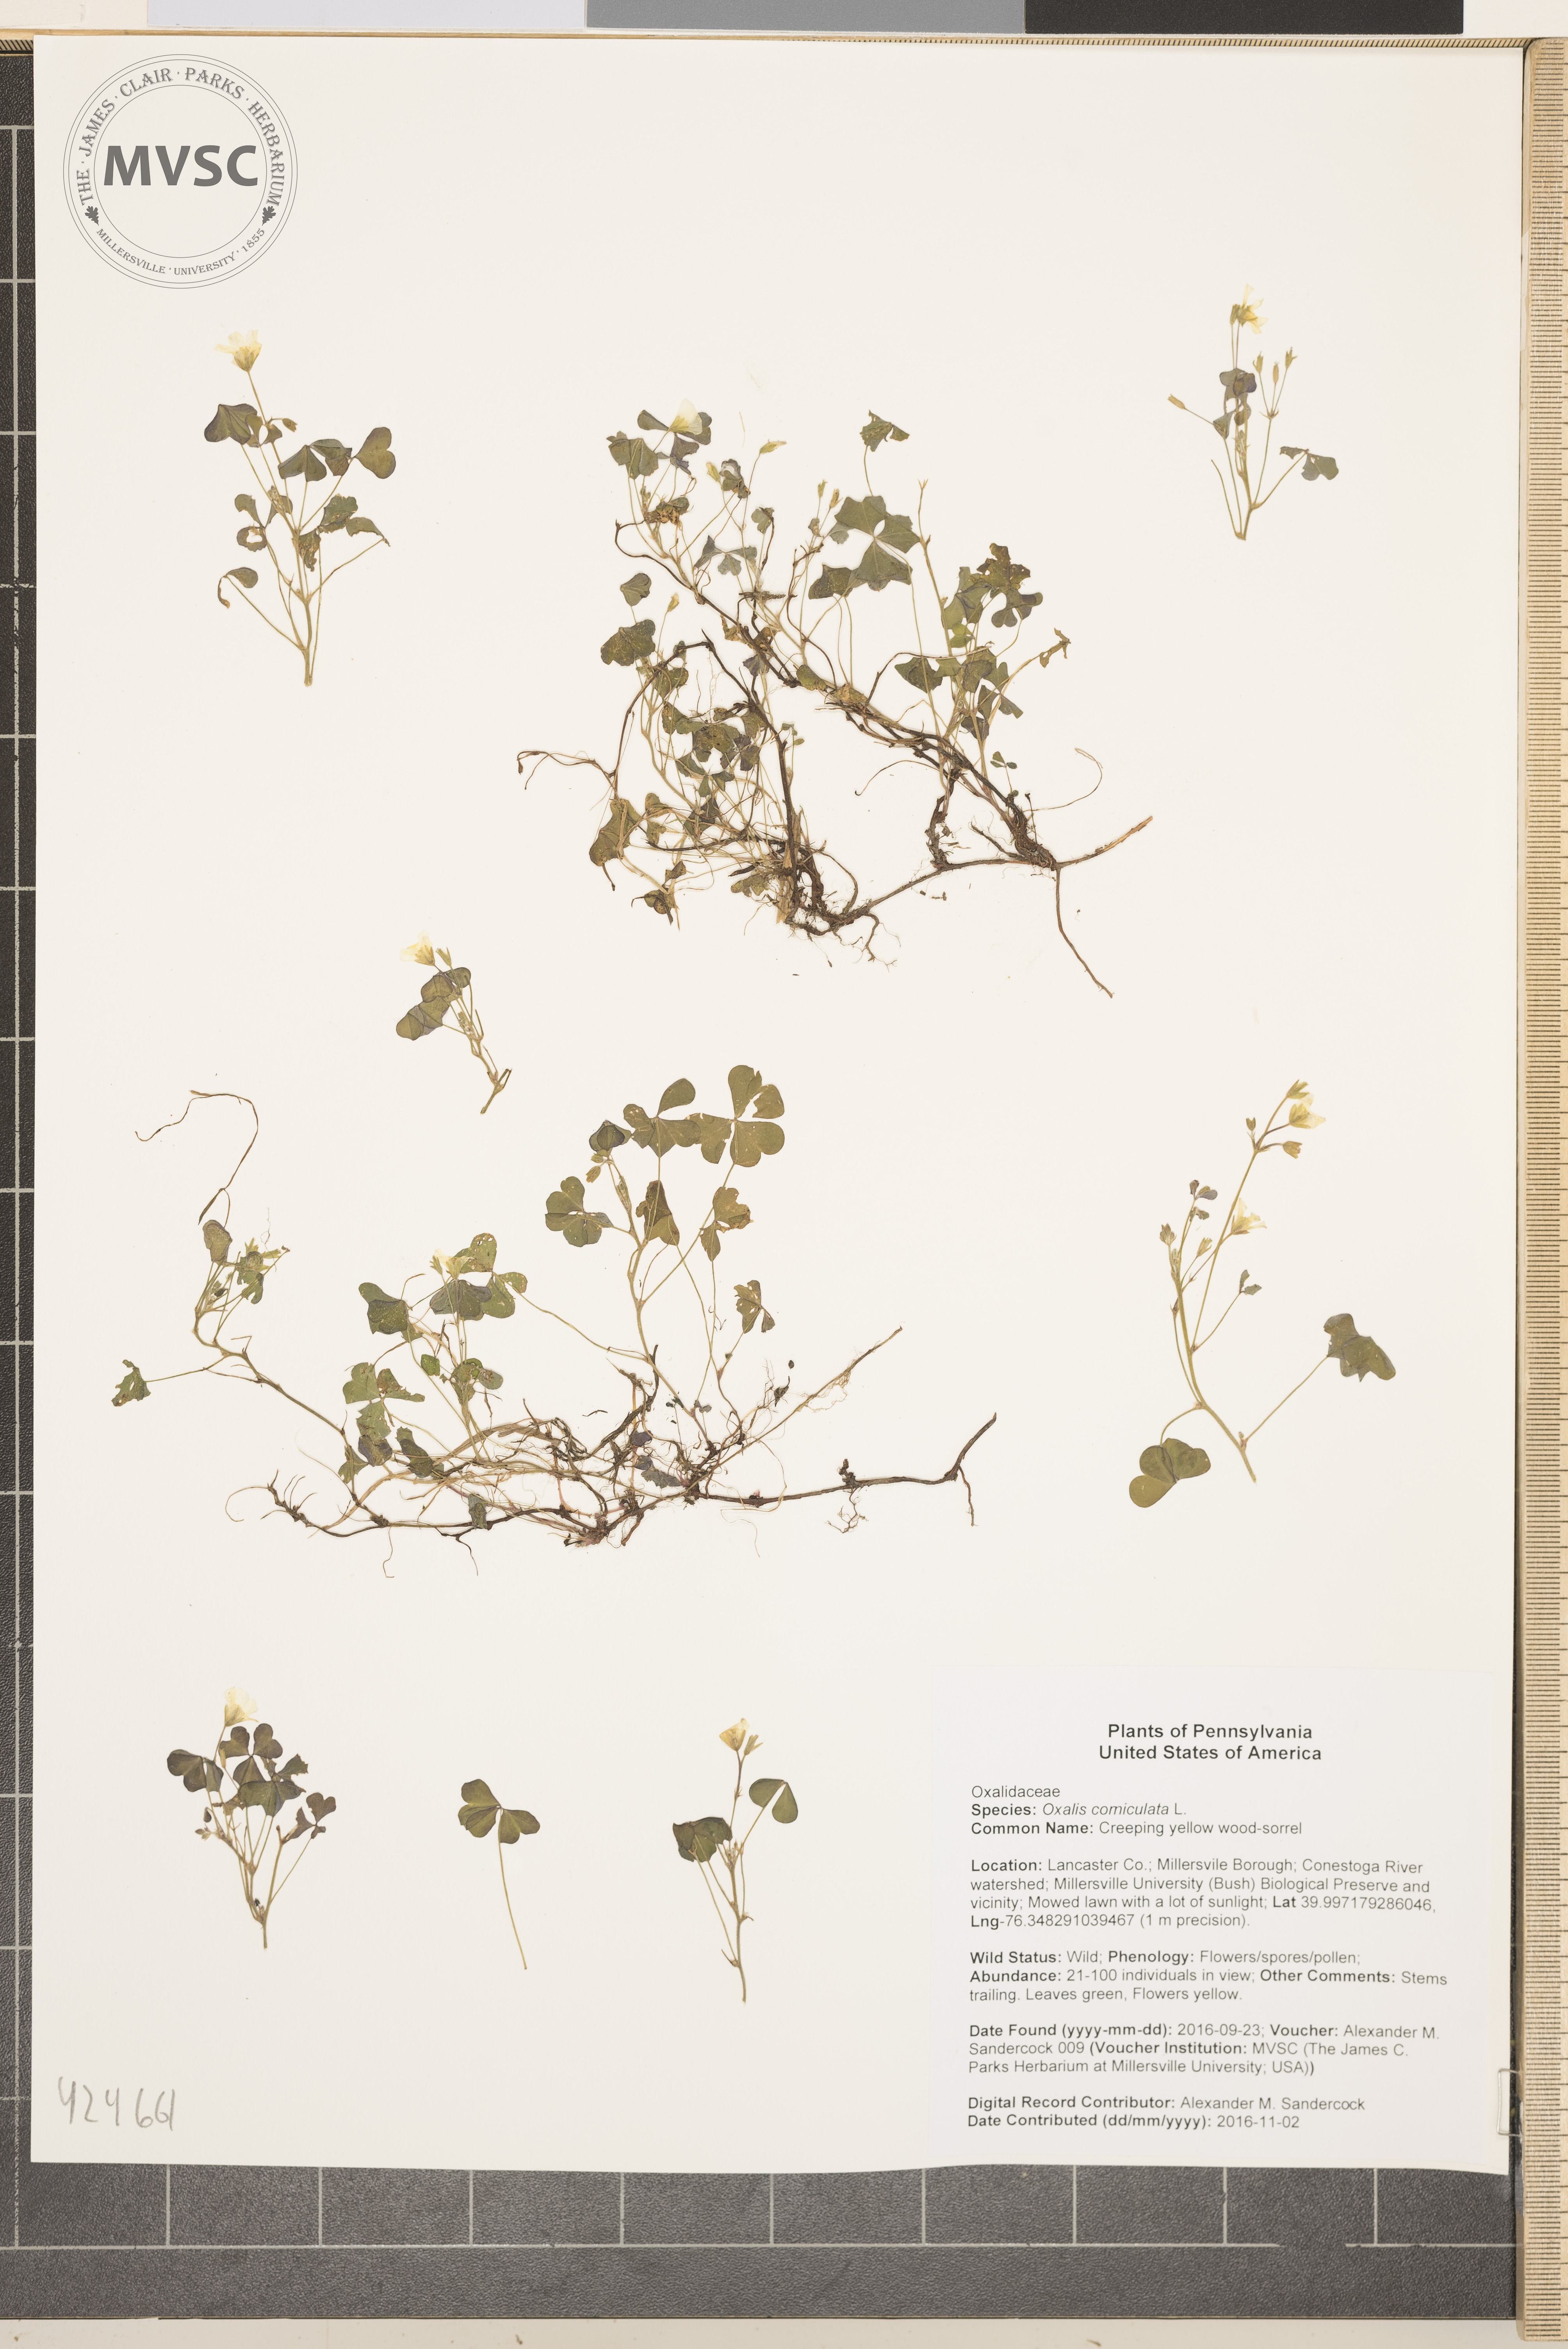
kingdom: Plantae
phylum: Tracheophyta
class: Magnoliopsida
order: Oxalidales
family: Oxalidaceae
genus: Oxalis
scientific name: Oxalis corniculata
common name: Creeping yellow wood-sorrel
